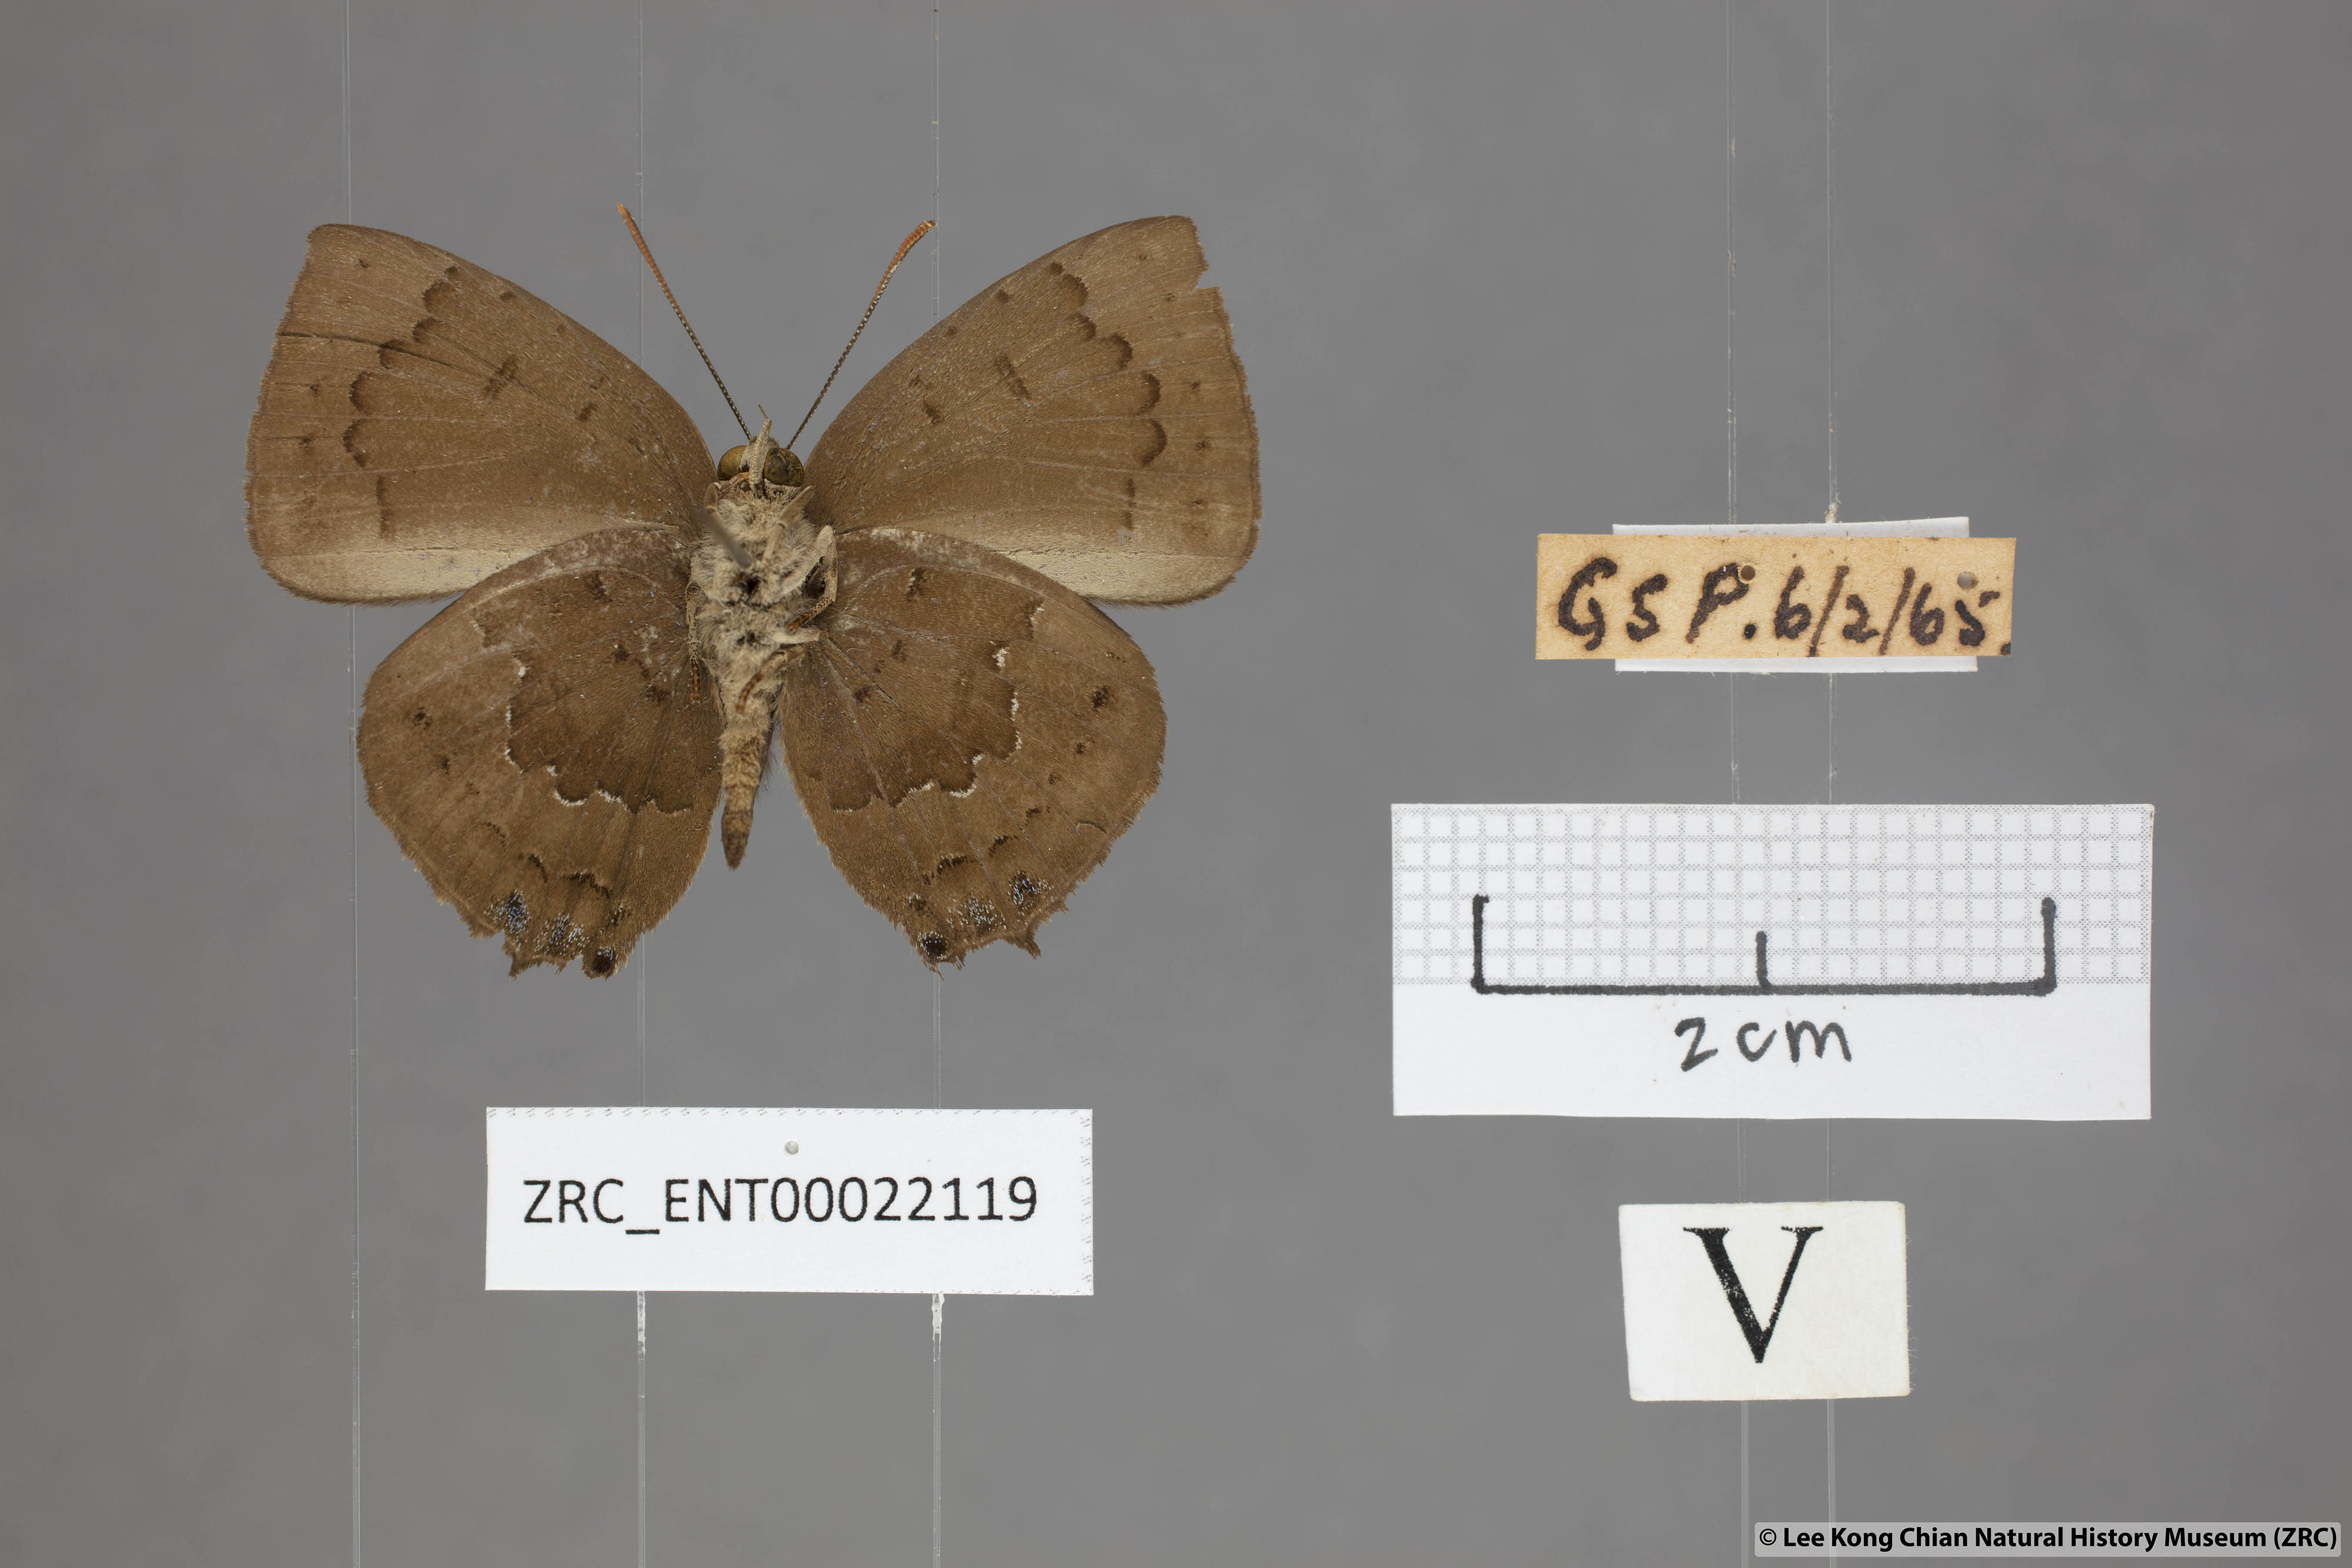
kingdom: Animalia
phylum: Arthropoda
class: Insecta
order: Lepidoptera
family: Lycaenidae
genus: Surendra
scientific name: Surendra florimel
